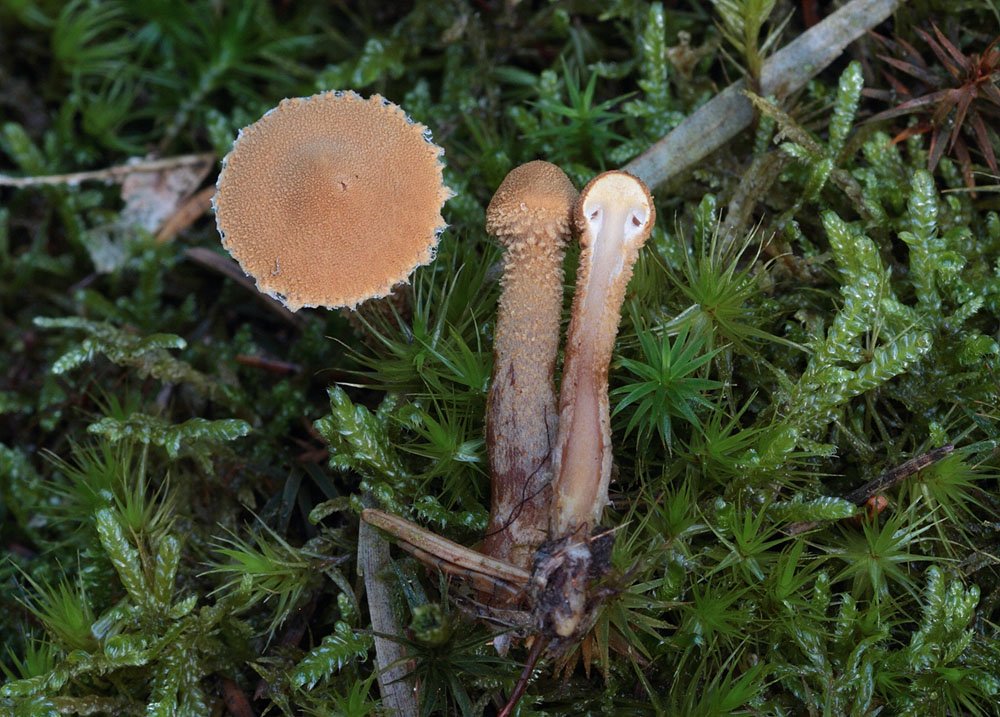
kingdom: Fungi
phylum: Basidiomycota
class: Agaricomycetes
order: Agaricales
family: Tricholomataceae
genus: Cystoderma
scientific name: Cystoderma jasonis
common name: gulkødet grynhat
